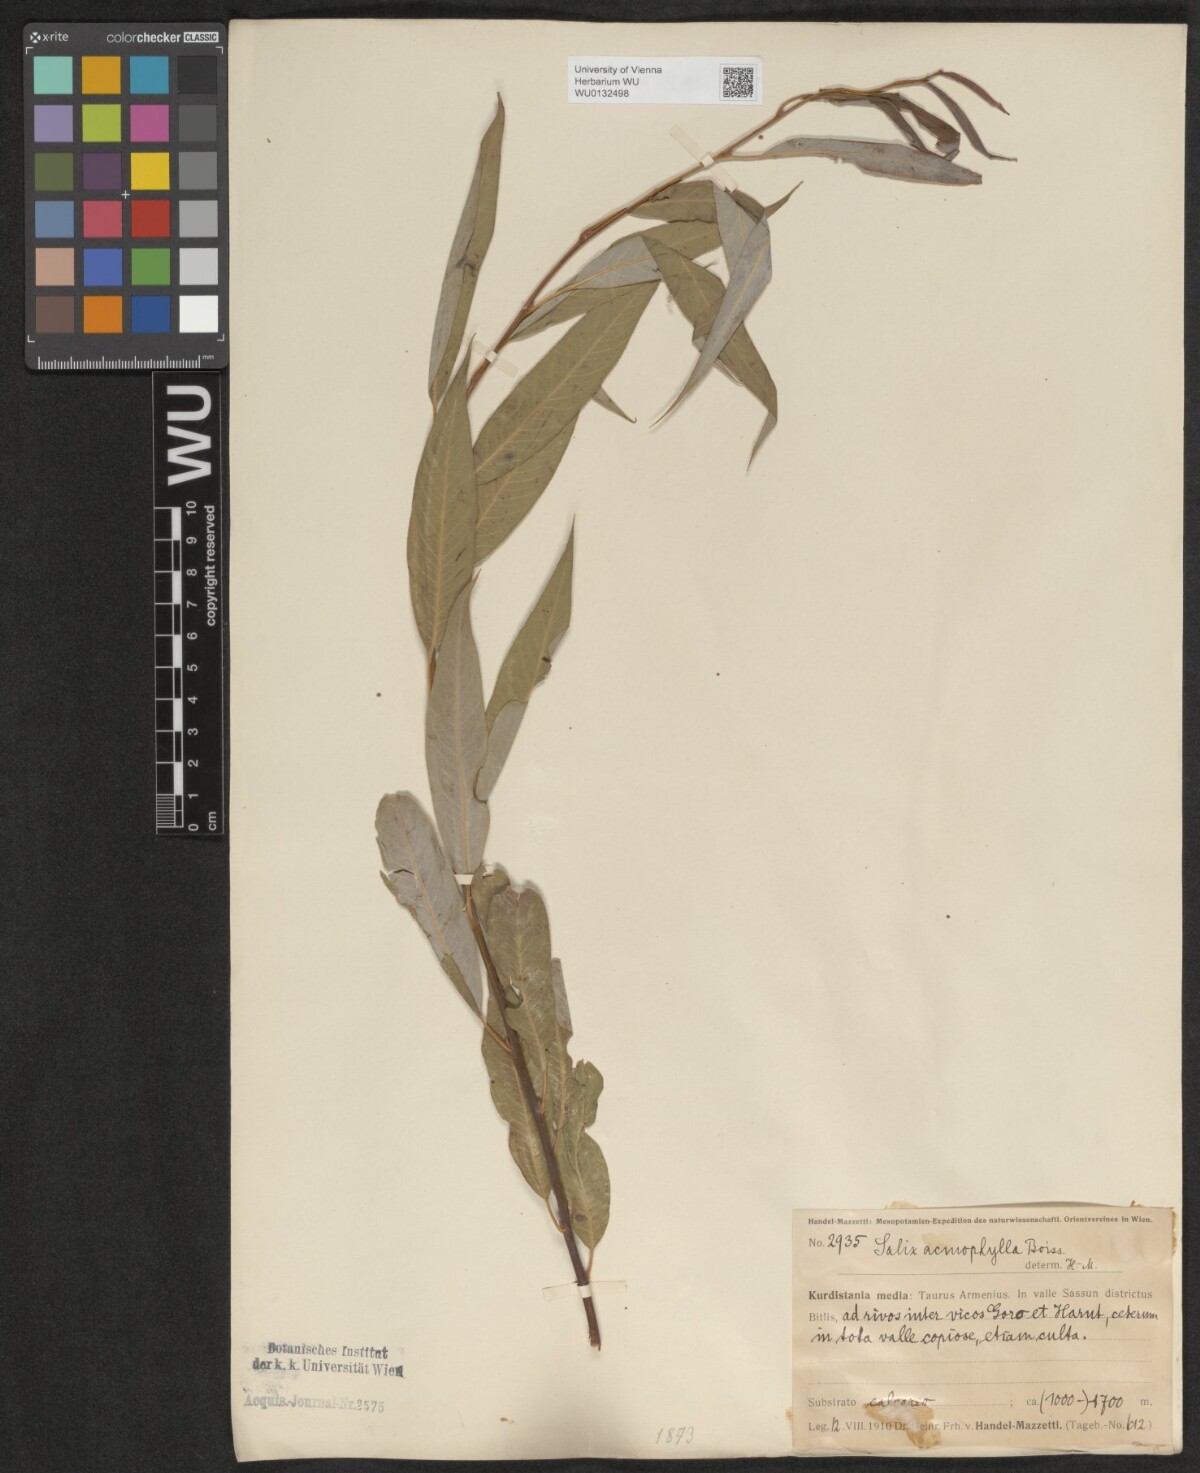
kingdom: Plantae
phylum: Tracheophyta
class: Magnoliopsida
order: Malpighiales
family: Salicaceae
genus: Salix
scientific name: Salix acmophylla
